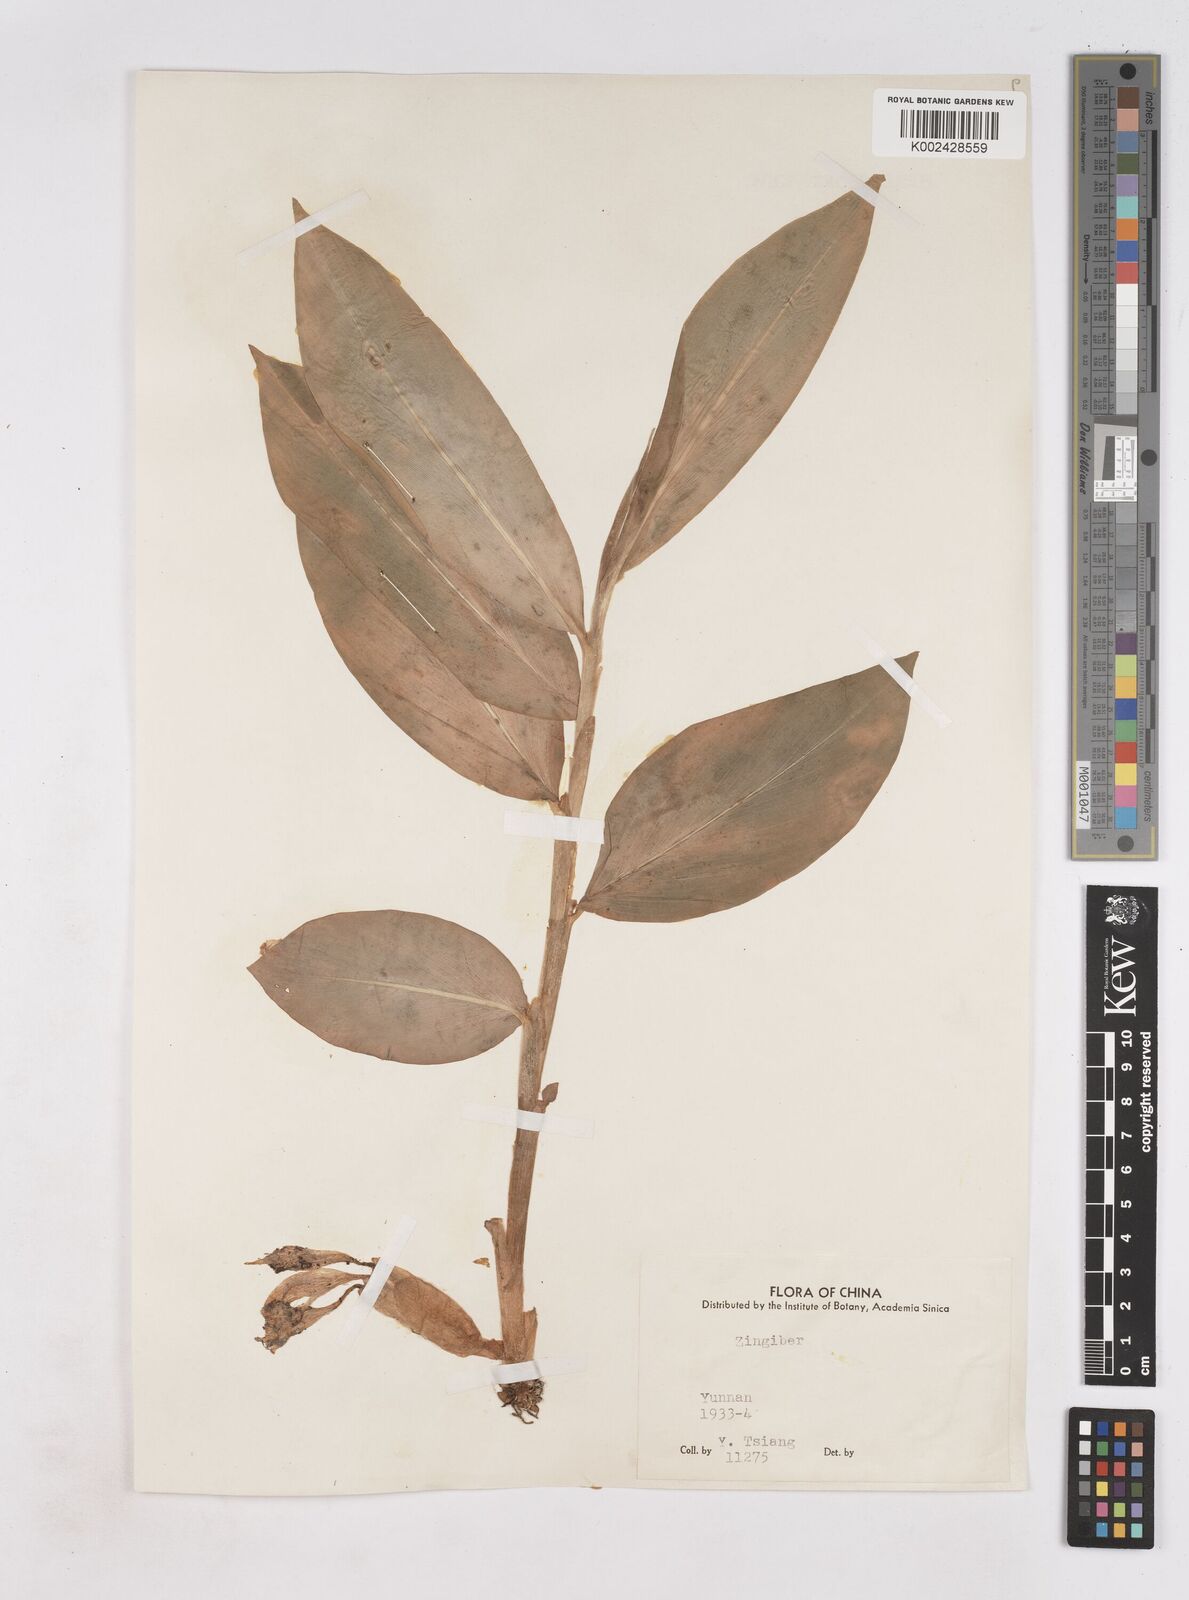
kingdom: Plantae
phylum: Tracheophyta
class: Liliopsida
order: Zingiberales
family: Zingiberaceae
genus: Zingiber
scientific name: Zingiber
